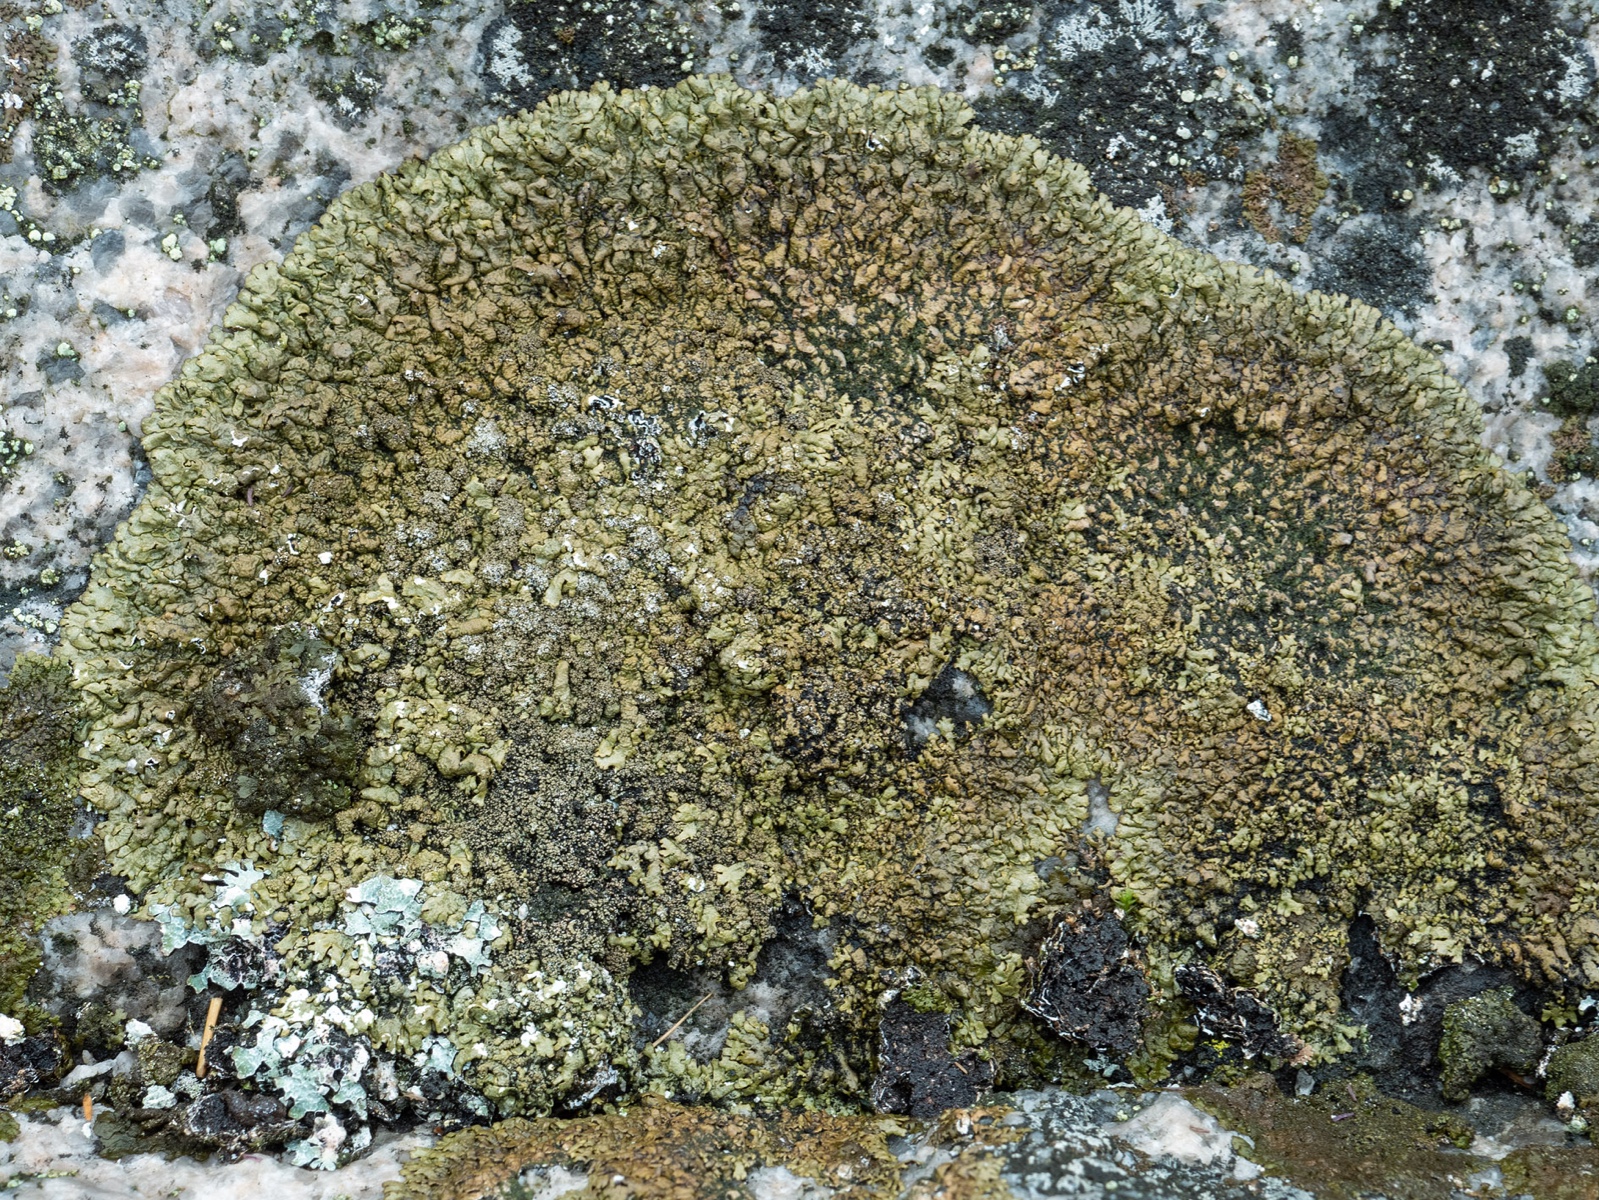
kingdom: Fungi
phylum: Ascomycota
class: Lecanoromycetes
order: Lecanorales
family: Parmeliaceae
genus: Xanthoparmelia
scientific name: Xanthoparmelia verruculifera
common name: småknoppet skållav
